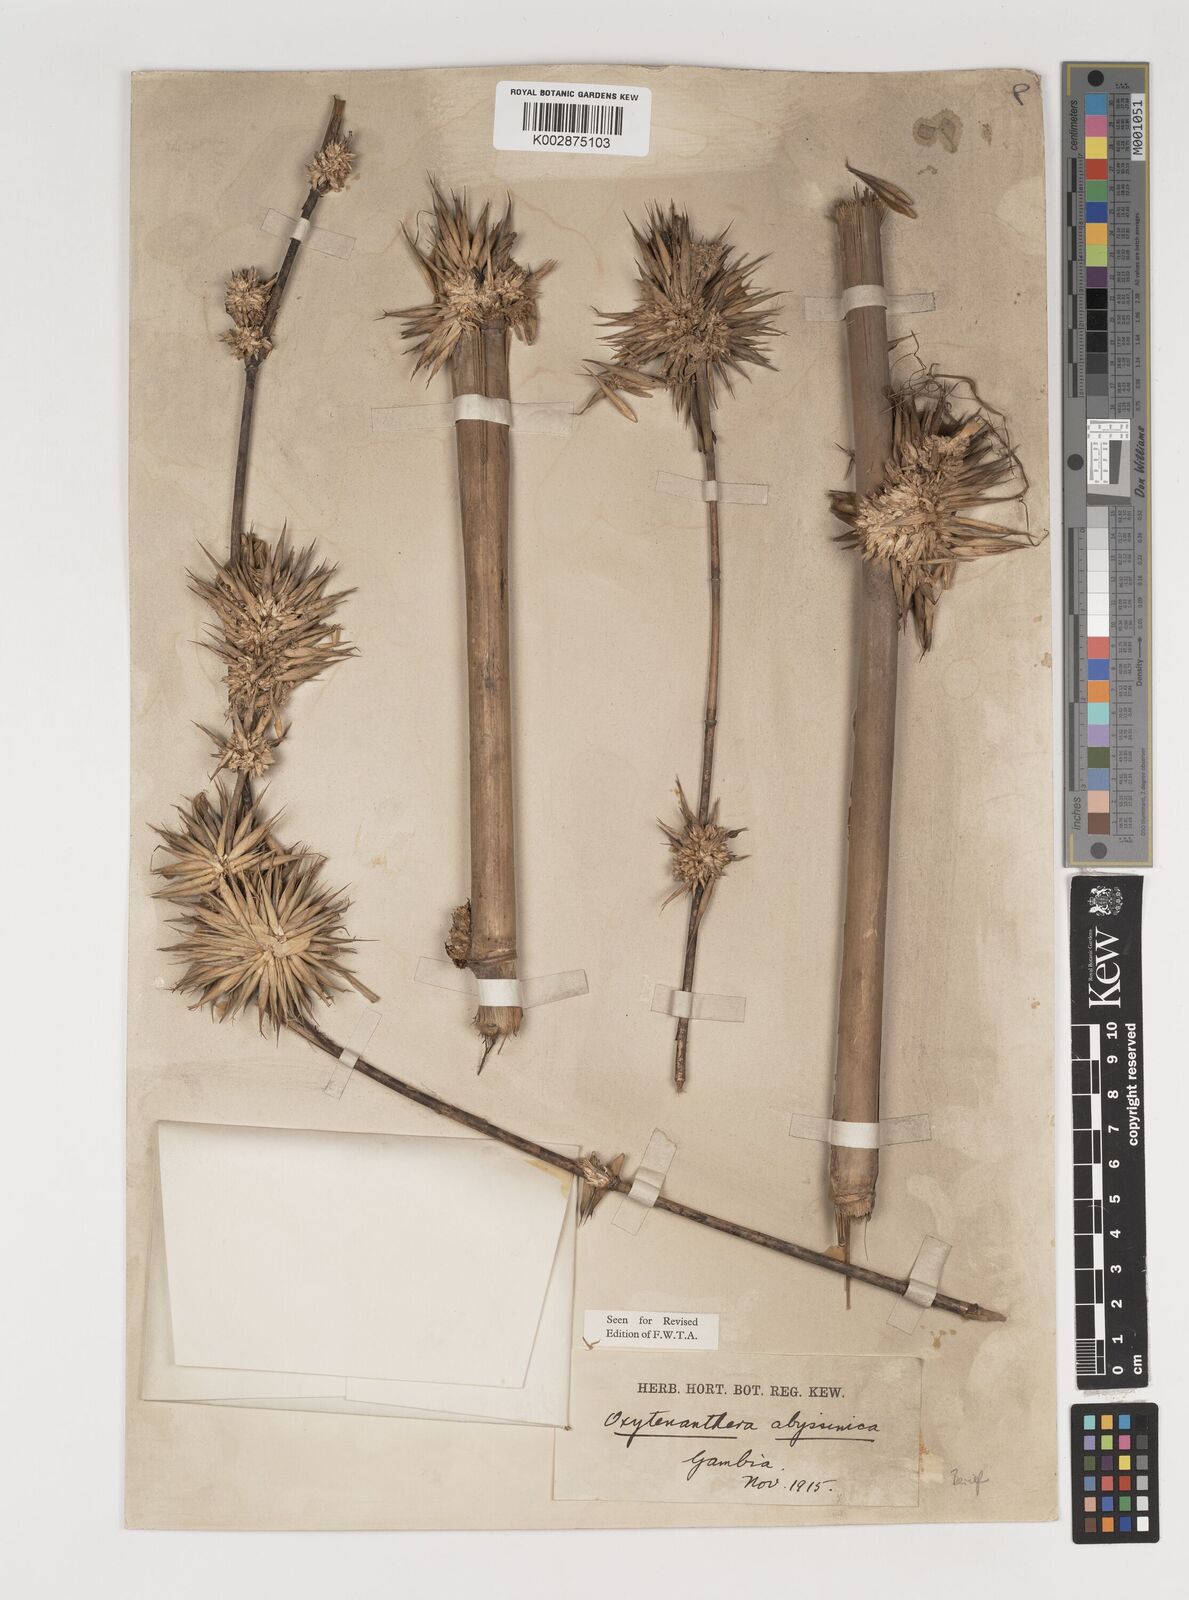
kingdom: Plantae
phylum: Tracheophyta
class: Liliopsida
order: Poales
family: Poaceae
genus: Oxytenanthera
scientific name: Oxytenanthera abyssinica
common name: Wine bamboo
